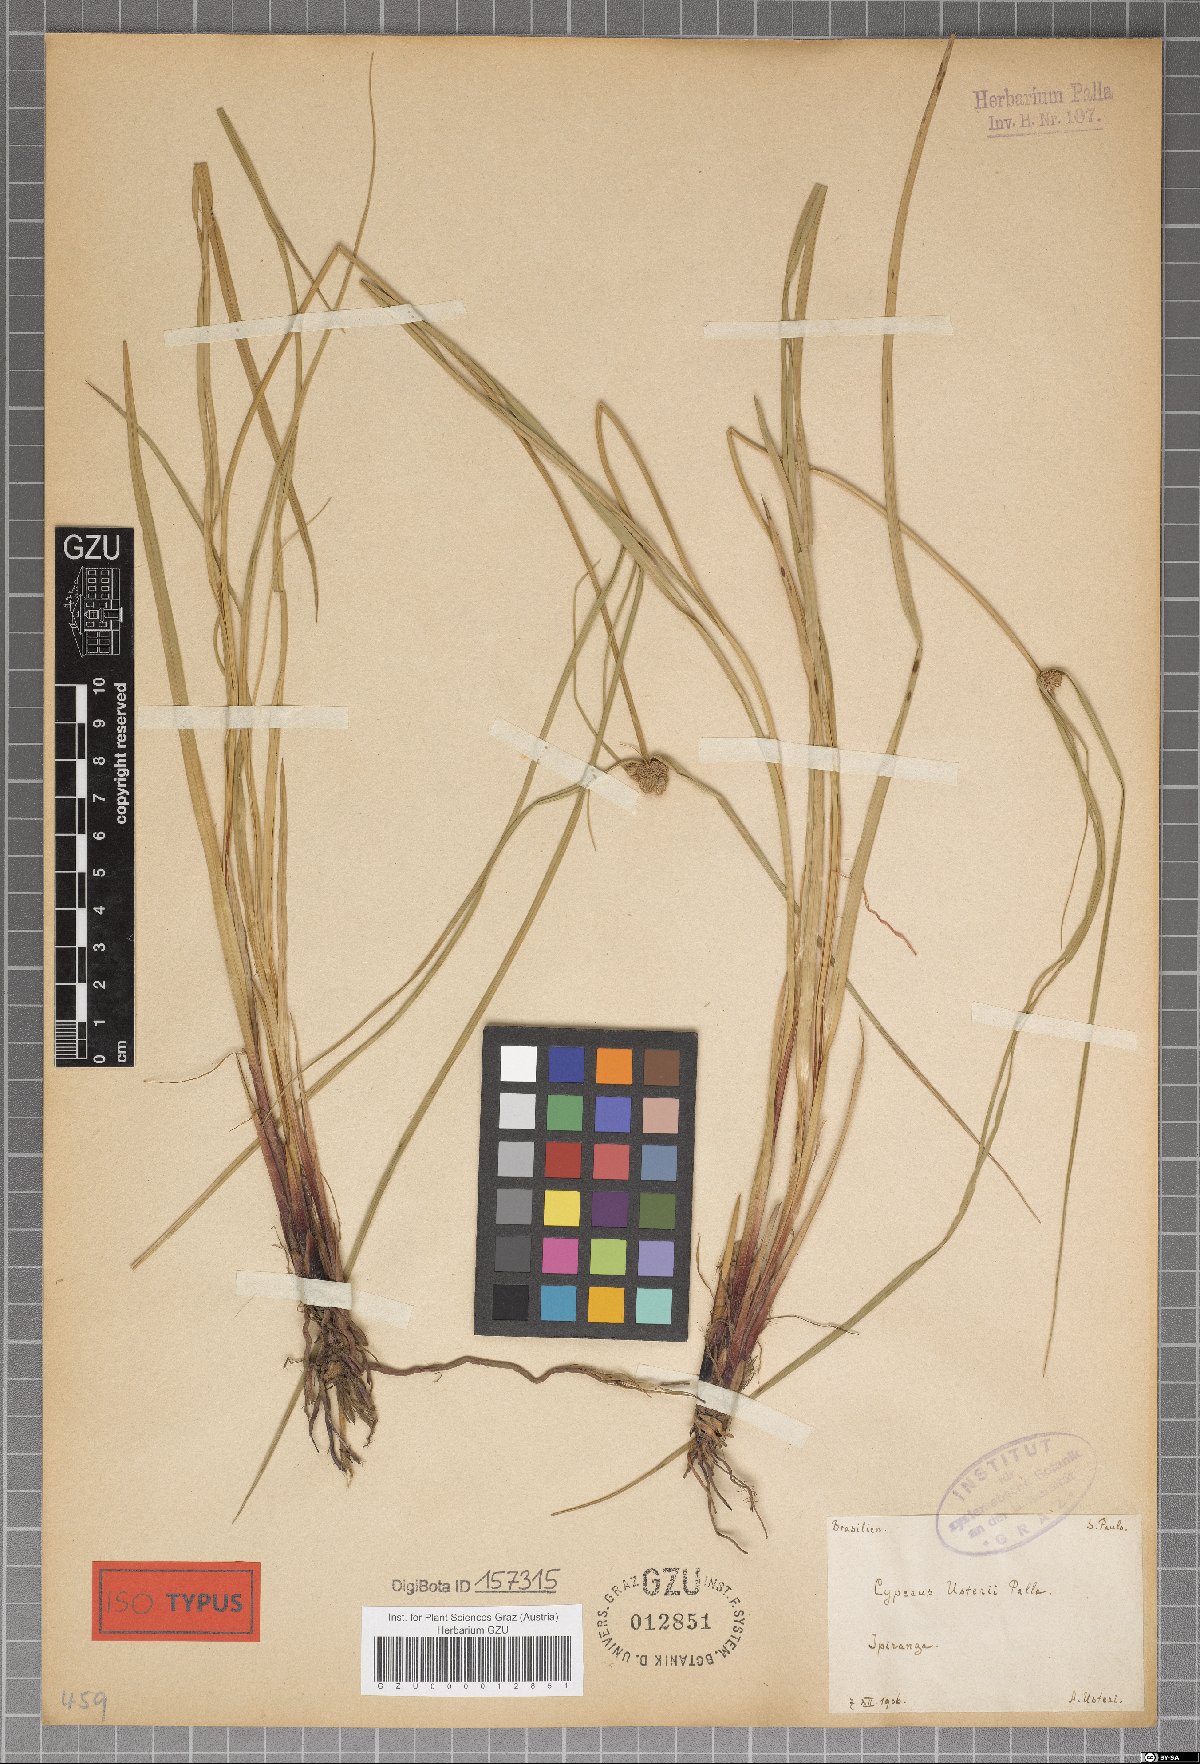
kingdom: Plantae
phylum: Tracheophyta
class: Liliopsida
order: Poales
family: Cyperaceae
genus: Cyperus
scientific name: Cyperus intricatus
